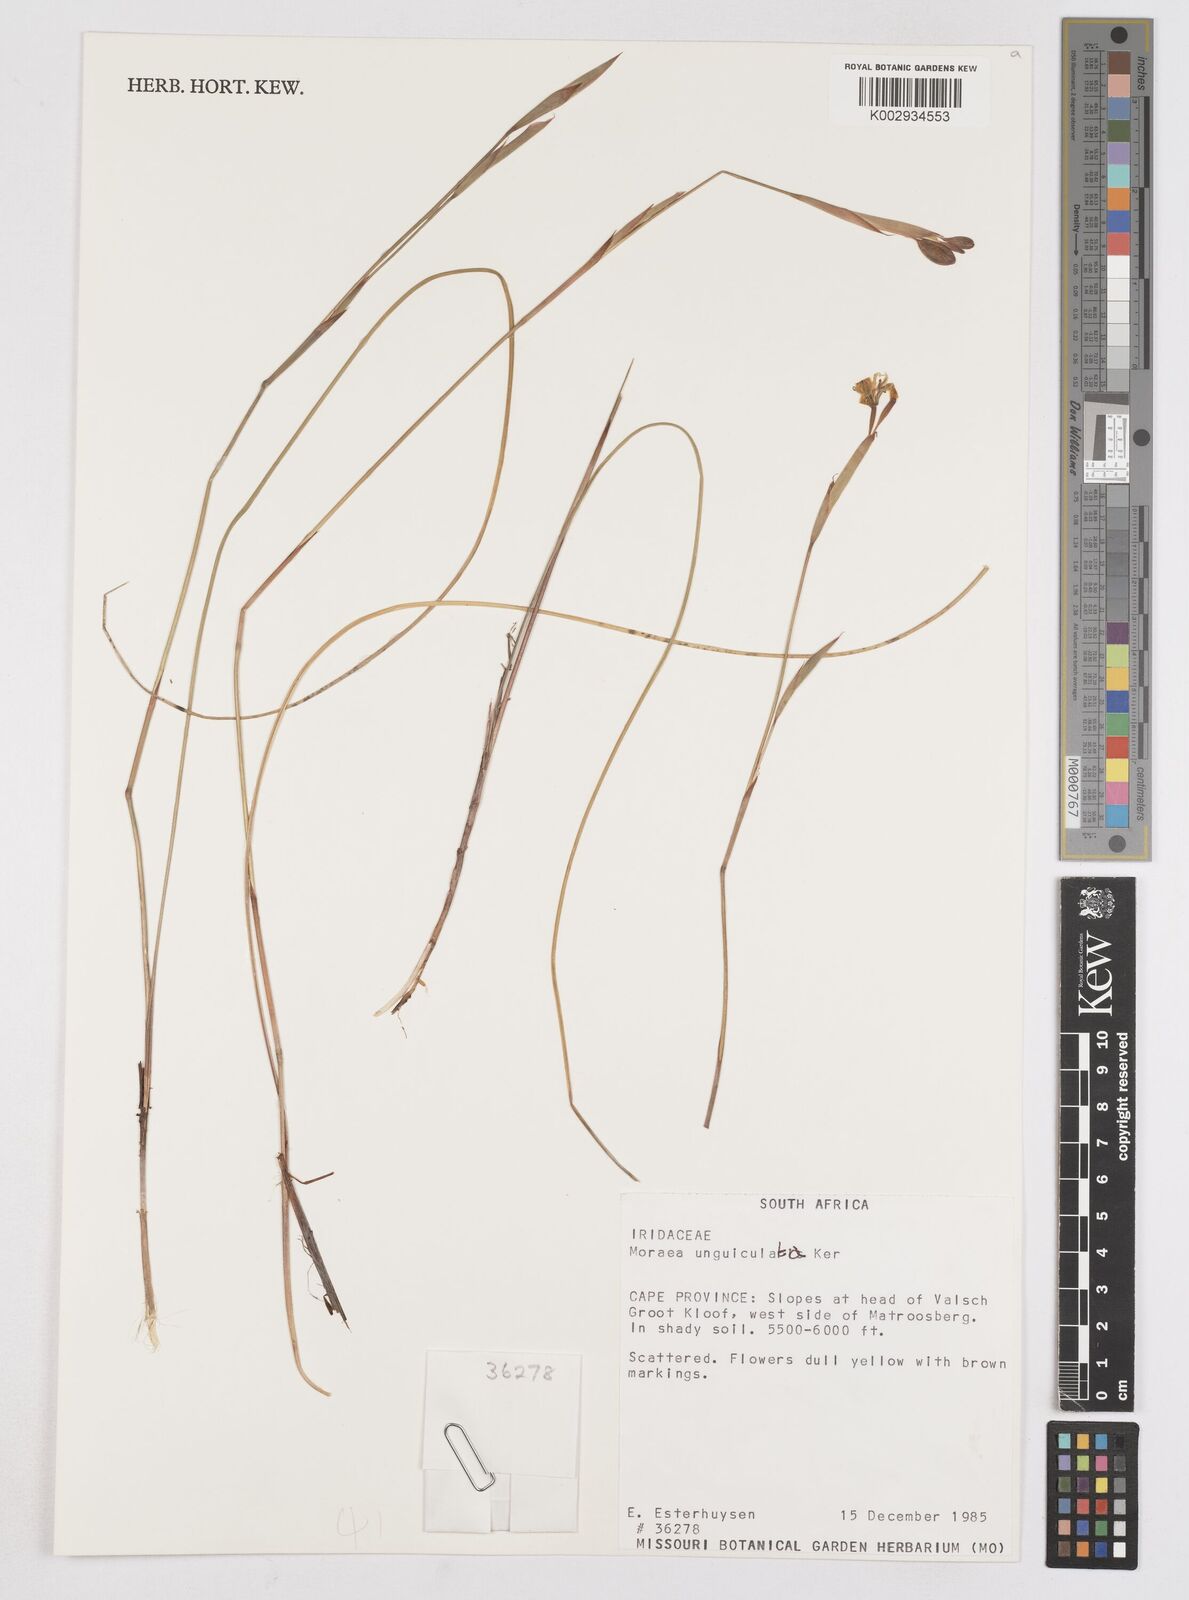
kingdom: Plantae
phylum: Tracheophyta
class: Liliopsida
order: Asparagales
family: Iridaceae
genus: Moraea
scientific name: Moraea unguiculata
